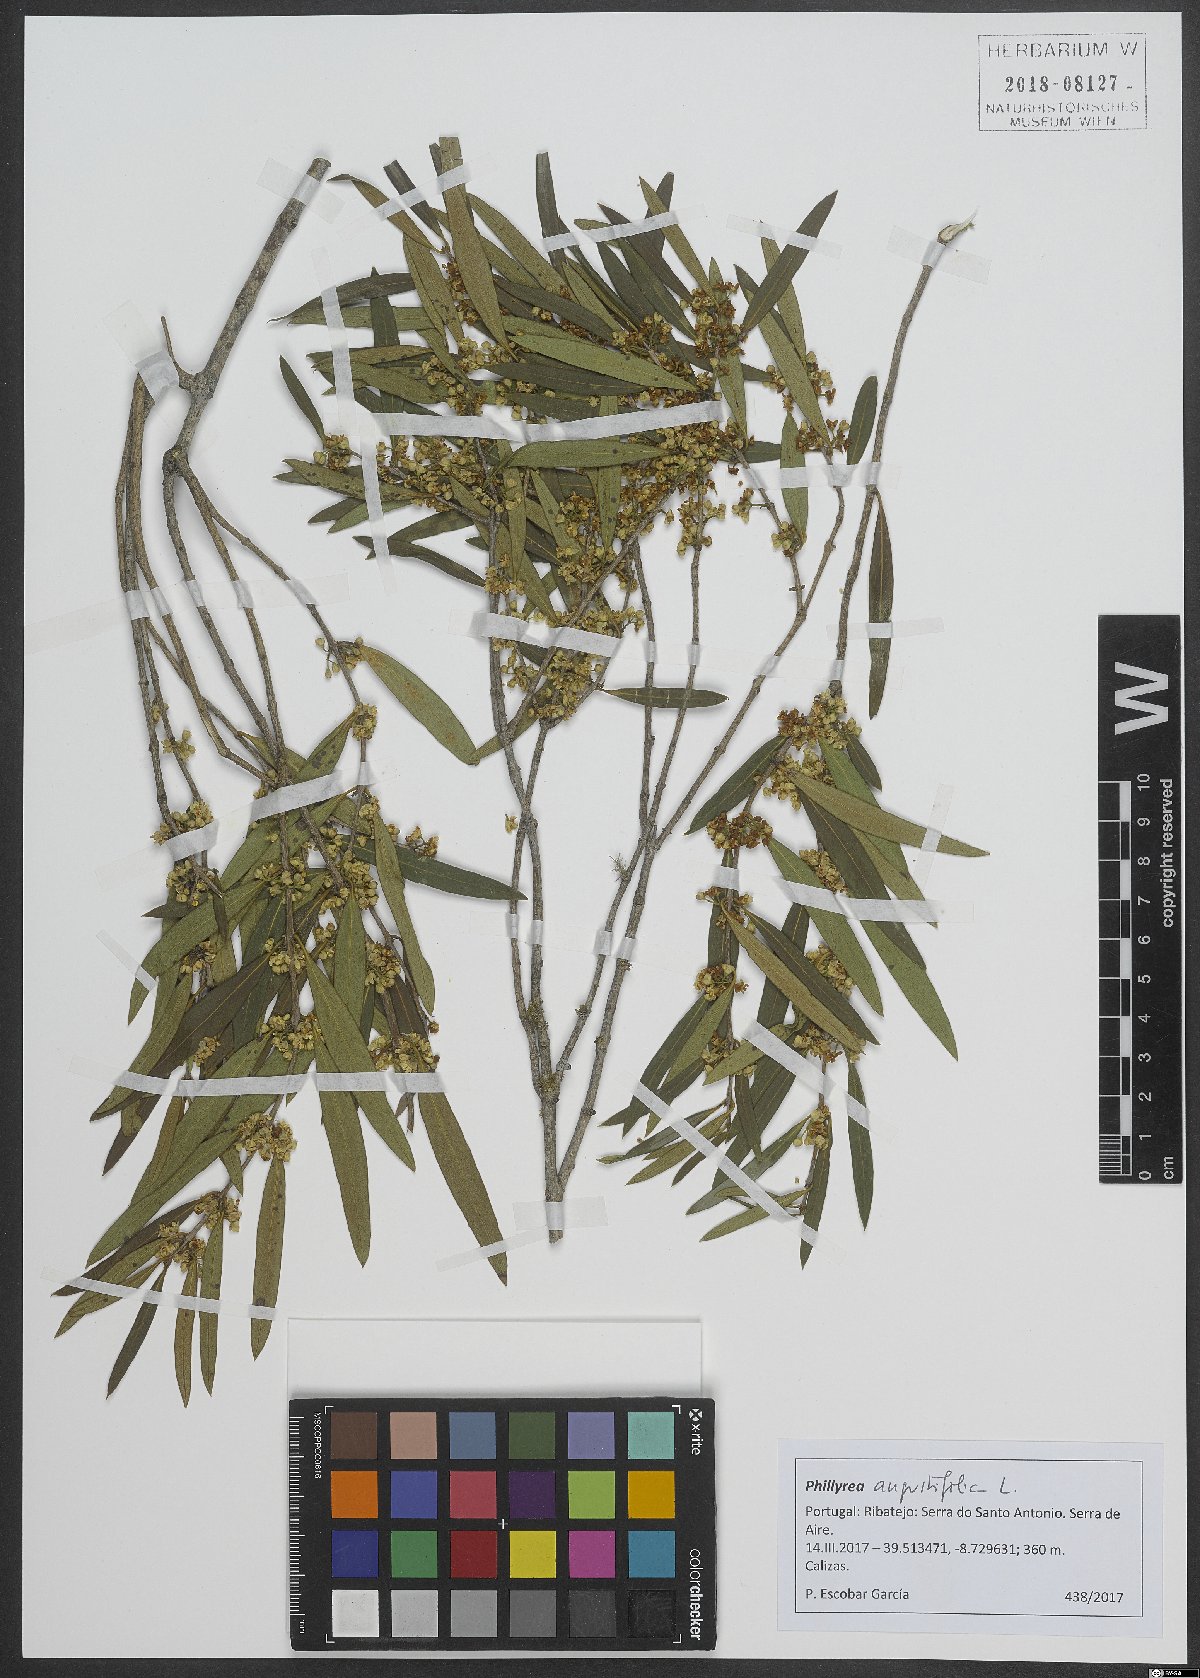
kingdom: Plantae
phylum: Tracheophyta
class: Magnoliopsida
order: Lamiales
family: Oleaceae
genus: Phillyrea
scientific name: Phillyrea angustifolia
